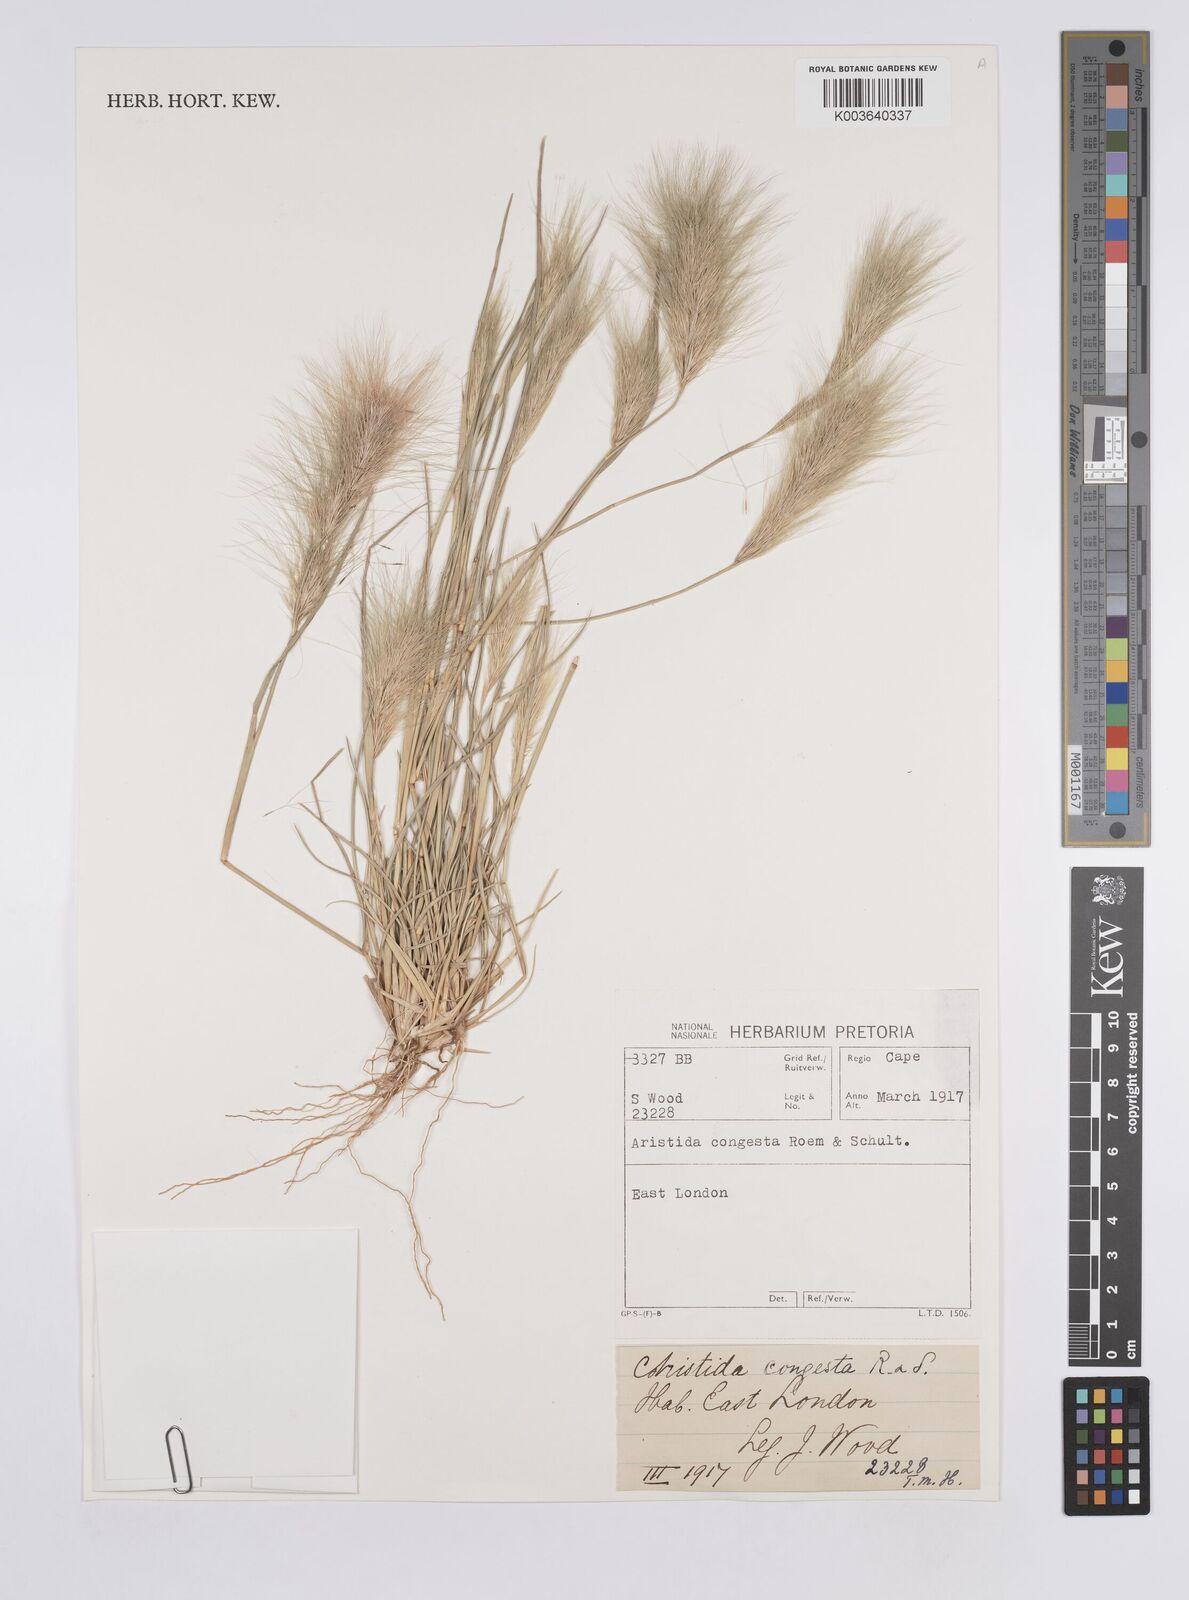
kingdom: Plantae
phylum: Tracheophyta
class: Liliopsida
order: Poales
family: Poaceae
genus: Aristida
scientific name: Aristida congesta
